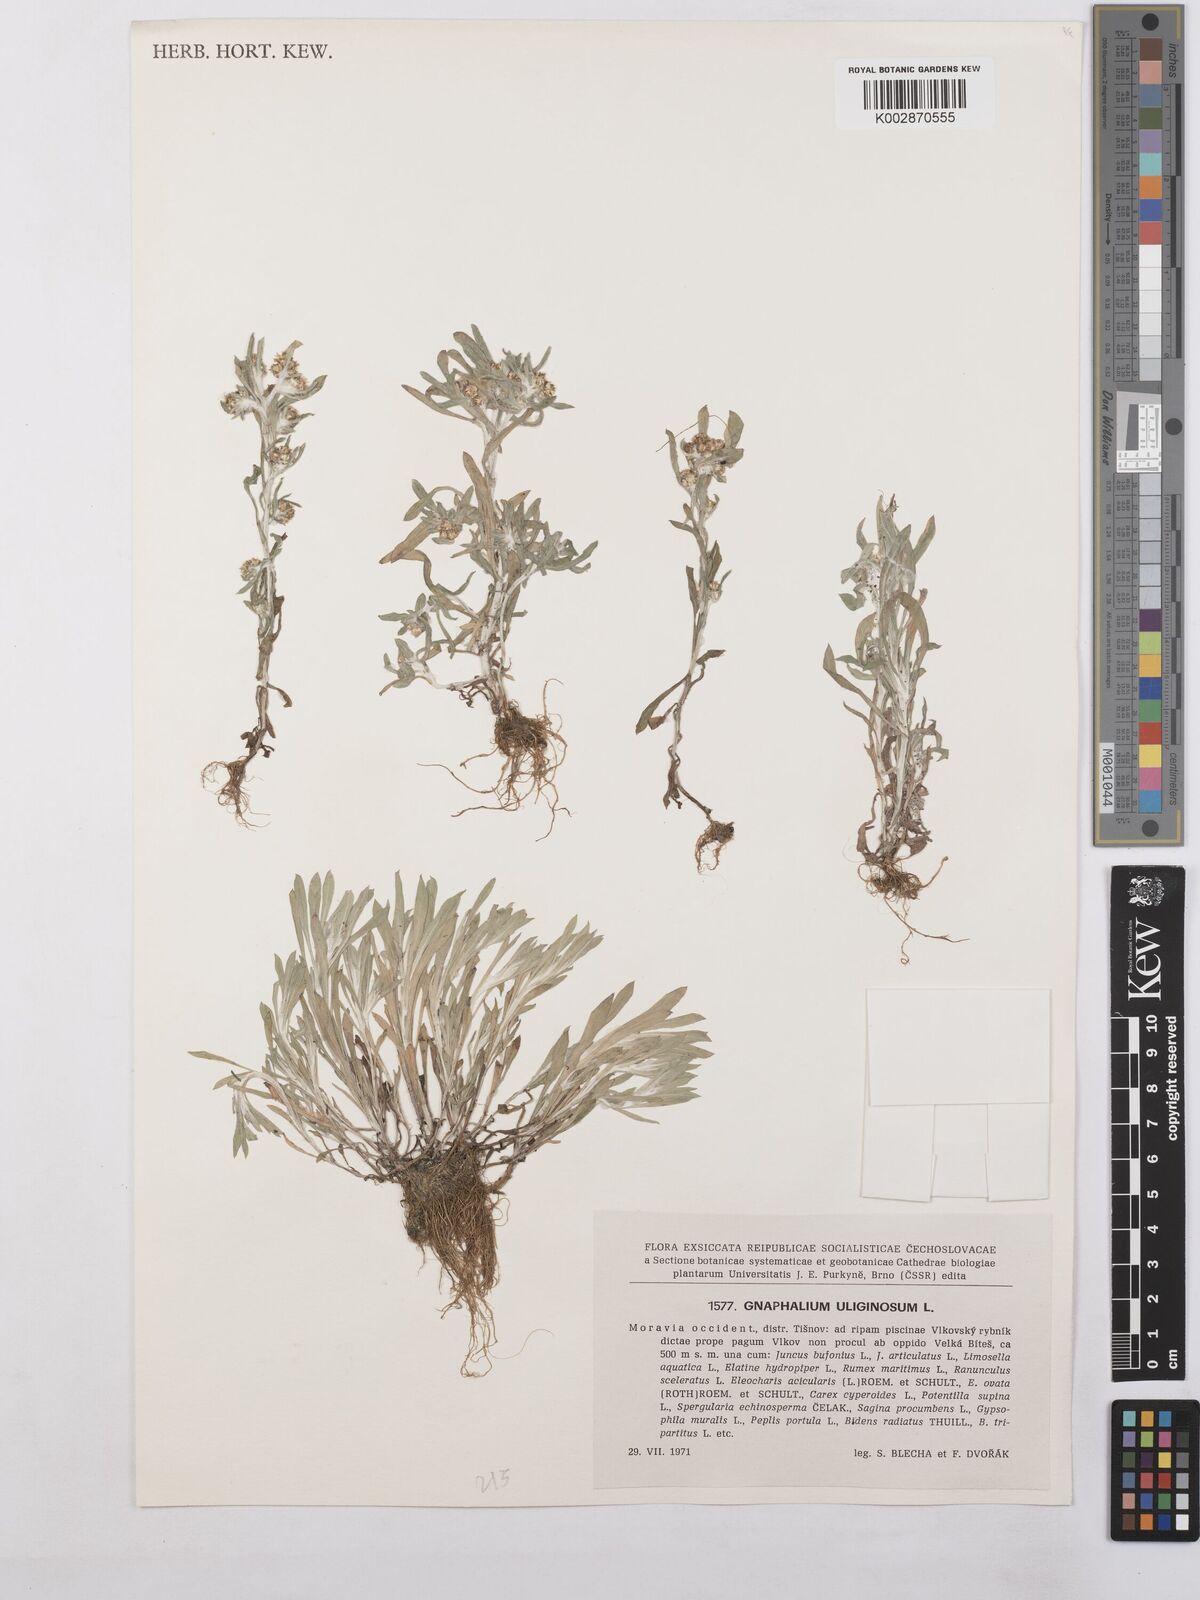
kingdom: Plantae
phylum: Tracheophyta
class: Magnoliopsida
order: Asterales
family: Asteraceae
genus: Gnaphalium
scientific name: Gnaphalium uliginosum
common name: Marsh cudweed
